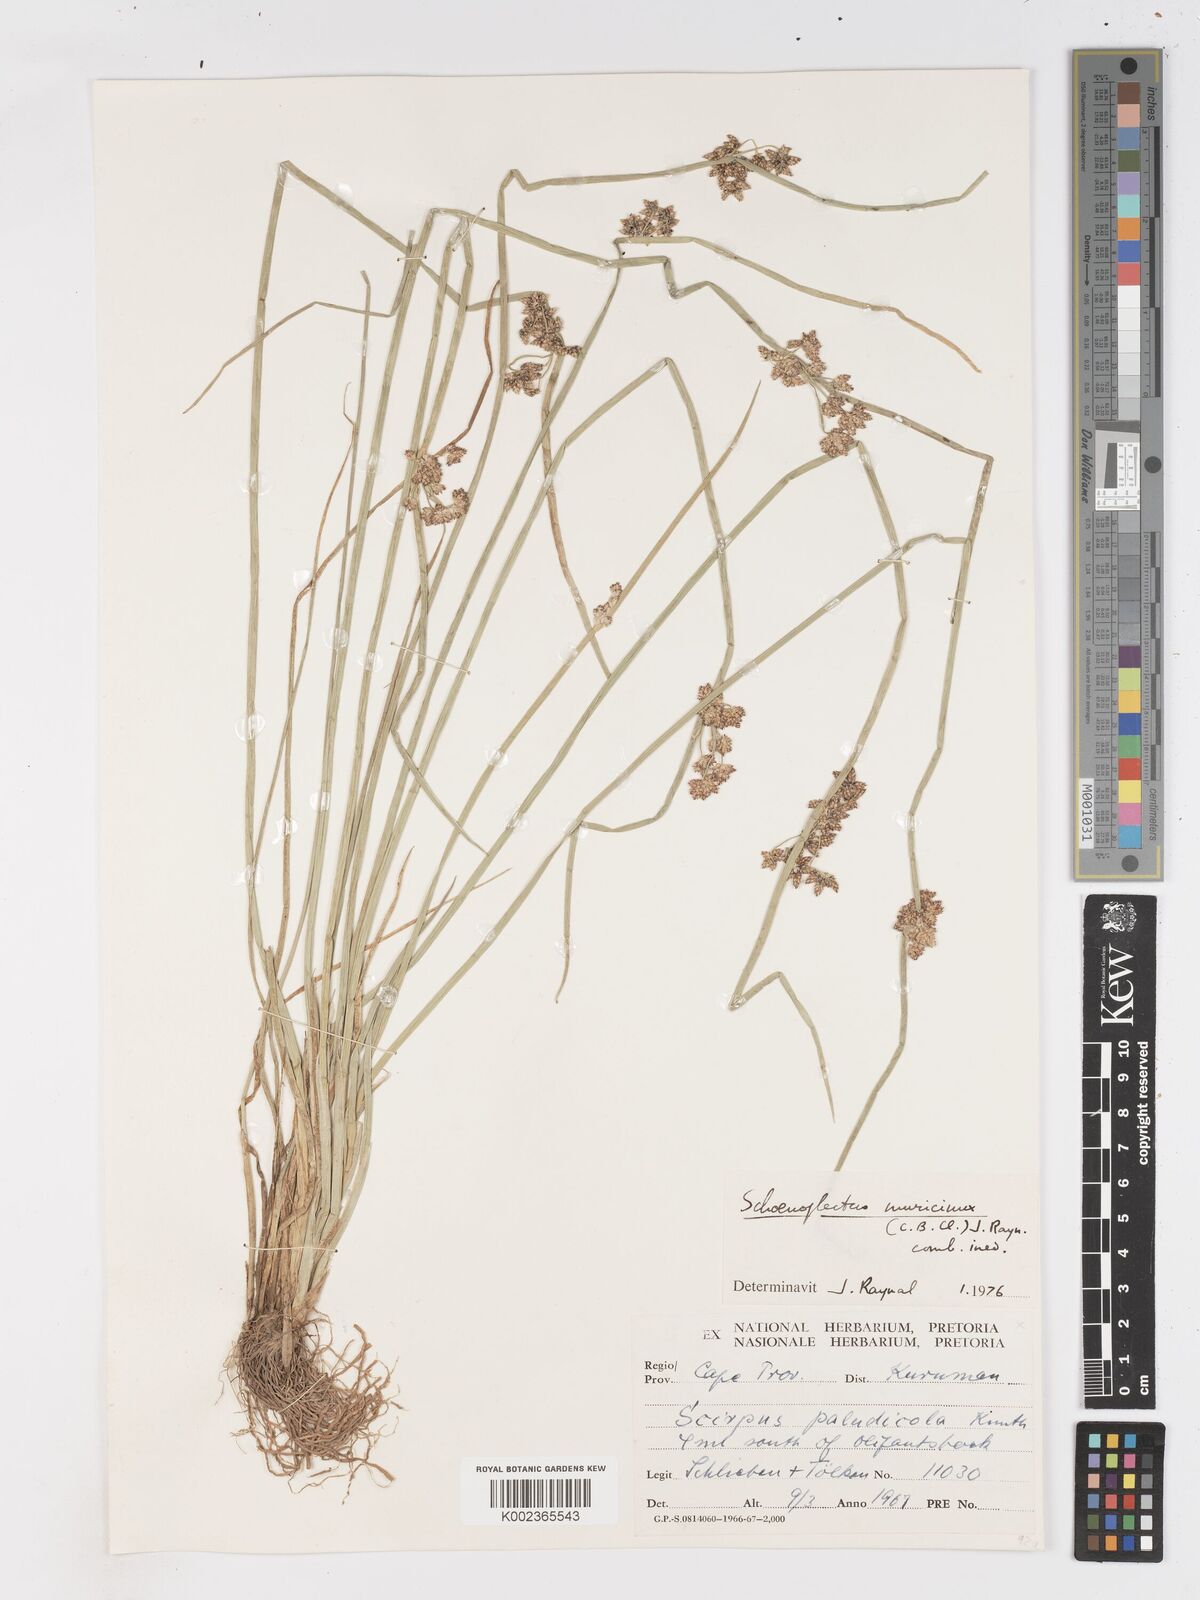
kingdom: Plantae
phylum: Tracheophyta
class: Liliopsida
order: Poales
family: Cyperaceae
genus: Schoenoplectiella
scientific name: Schoenoplectiella muricinux
